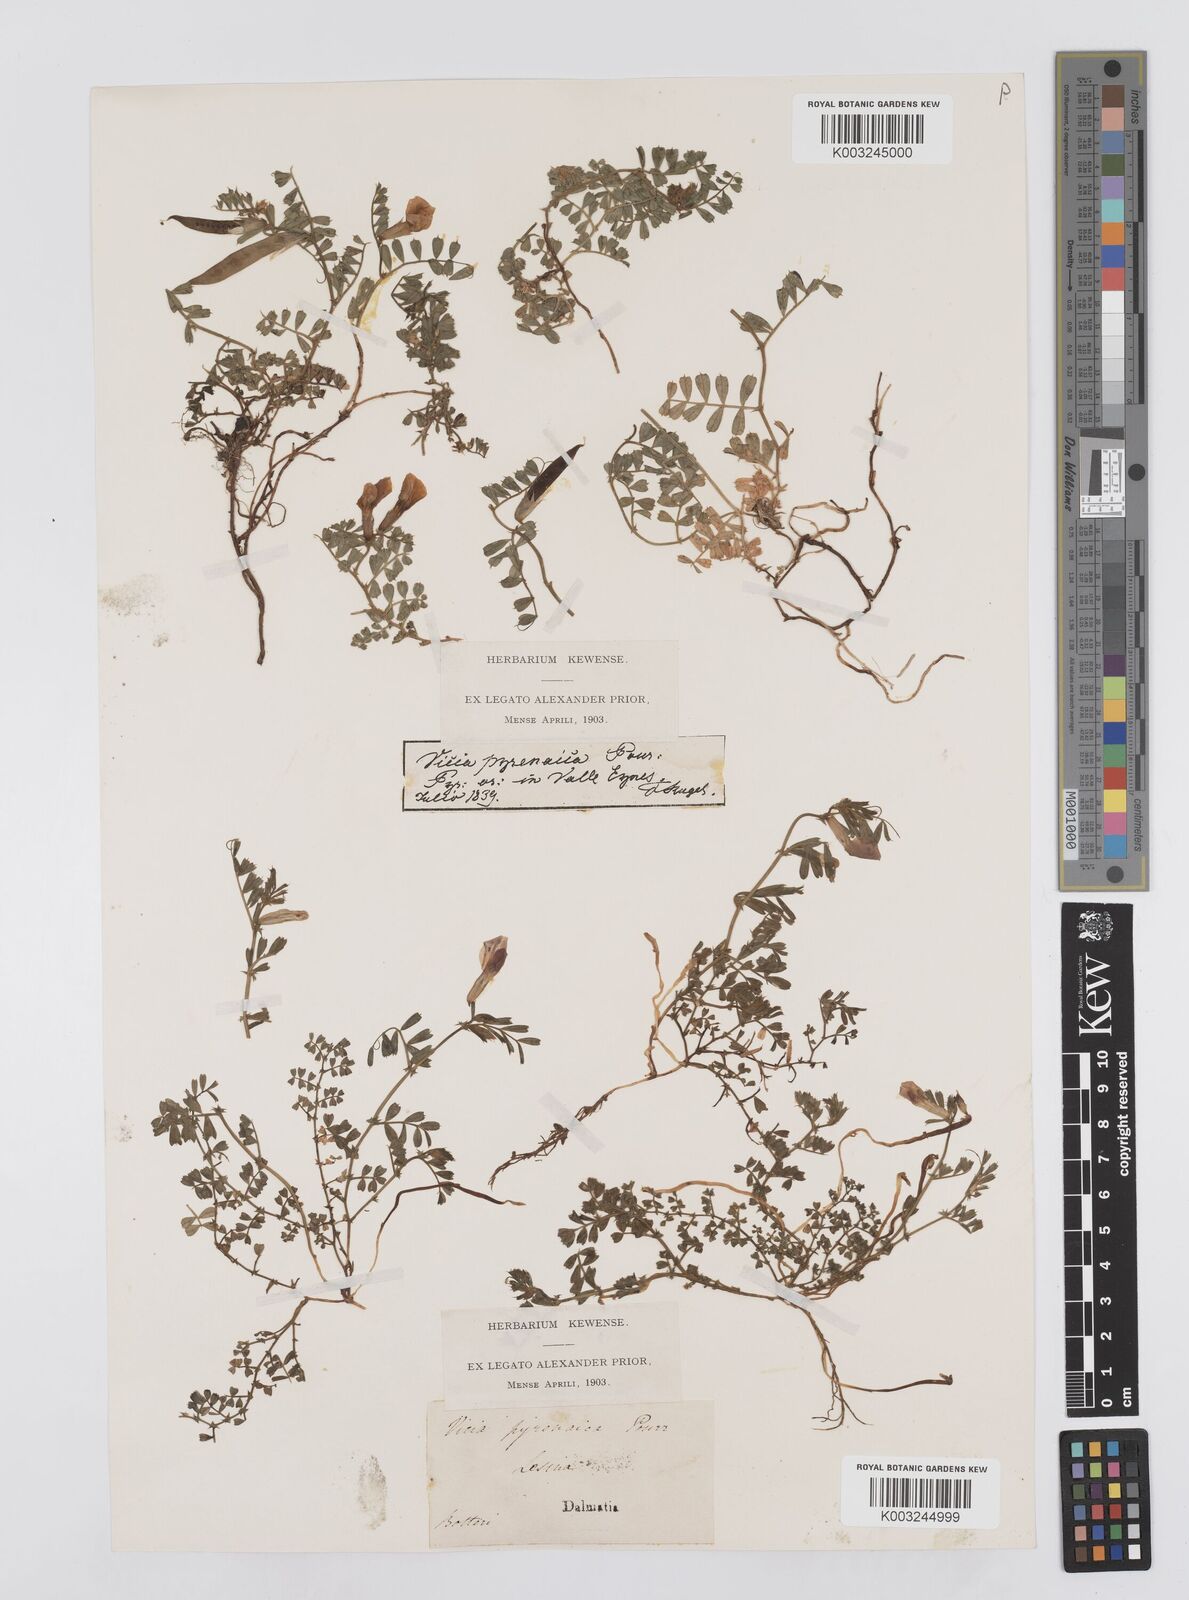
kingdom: Plantae
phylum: Tracheophyta
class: Magnoliopsida
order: Fabales
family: Fabaceae
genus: Vicia
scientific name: Vicia pyrenaica
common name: Pyrenean vetch
